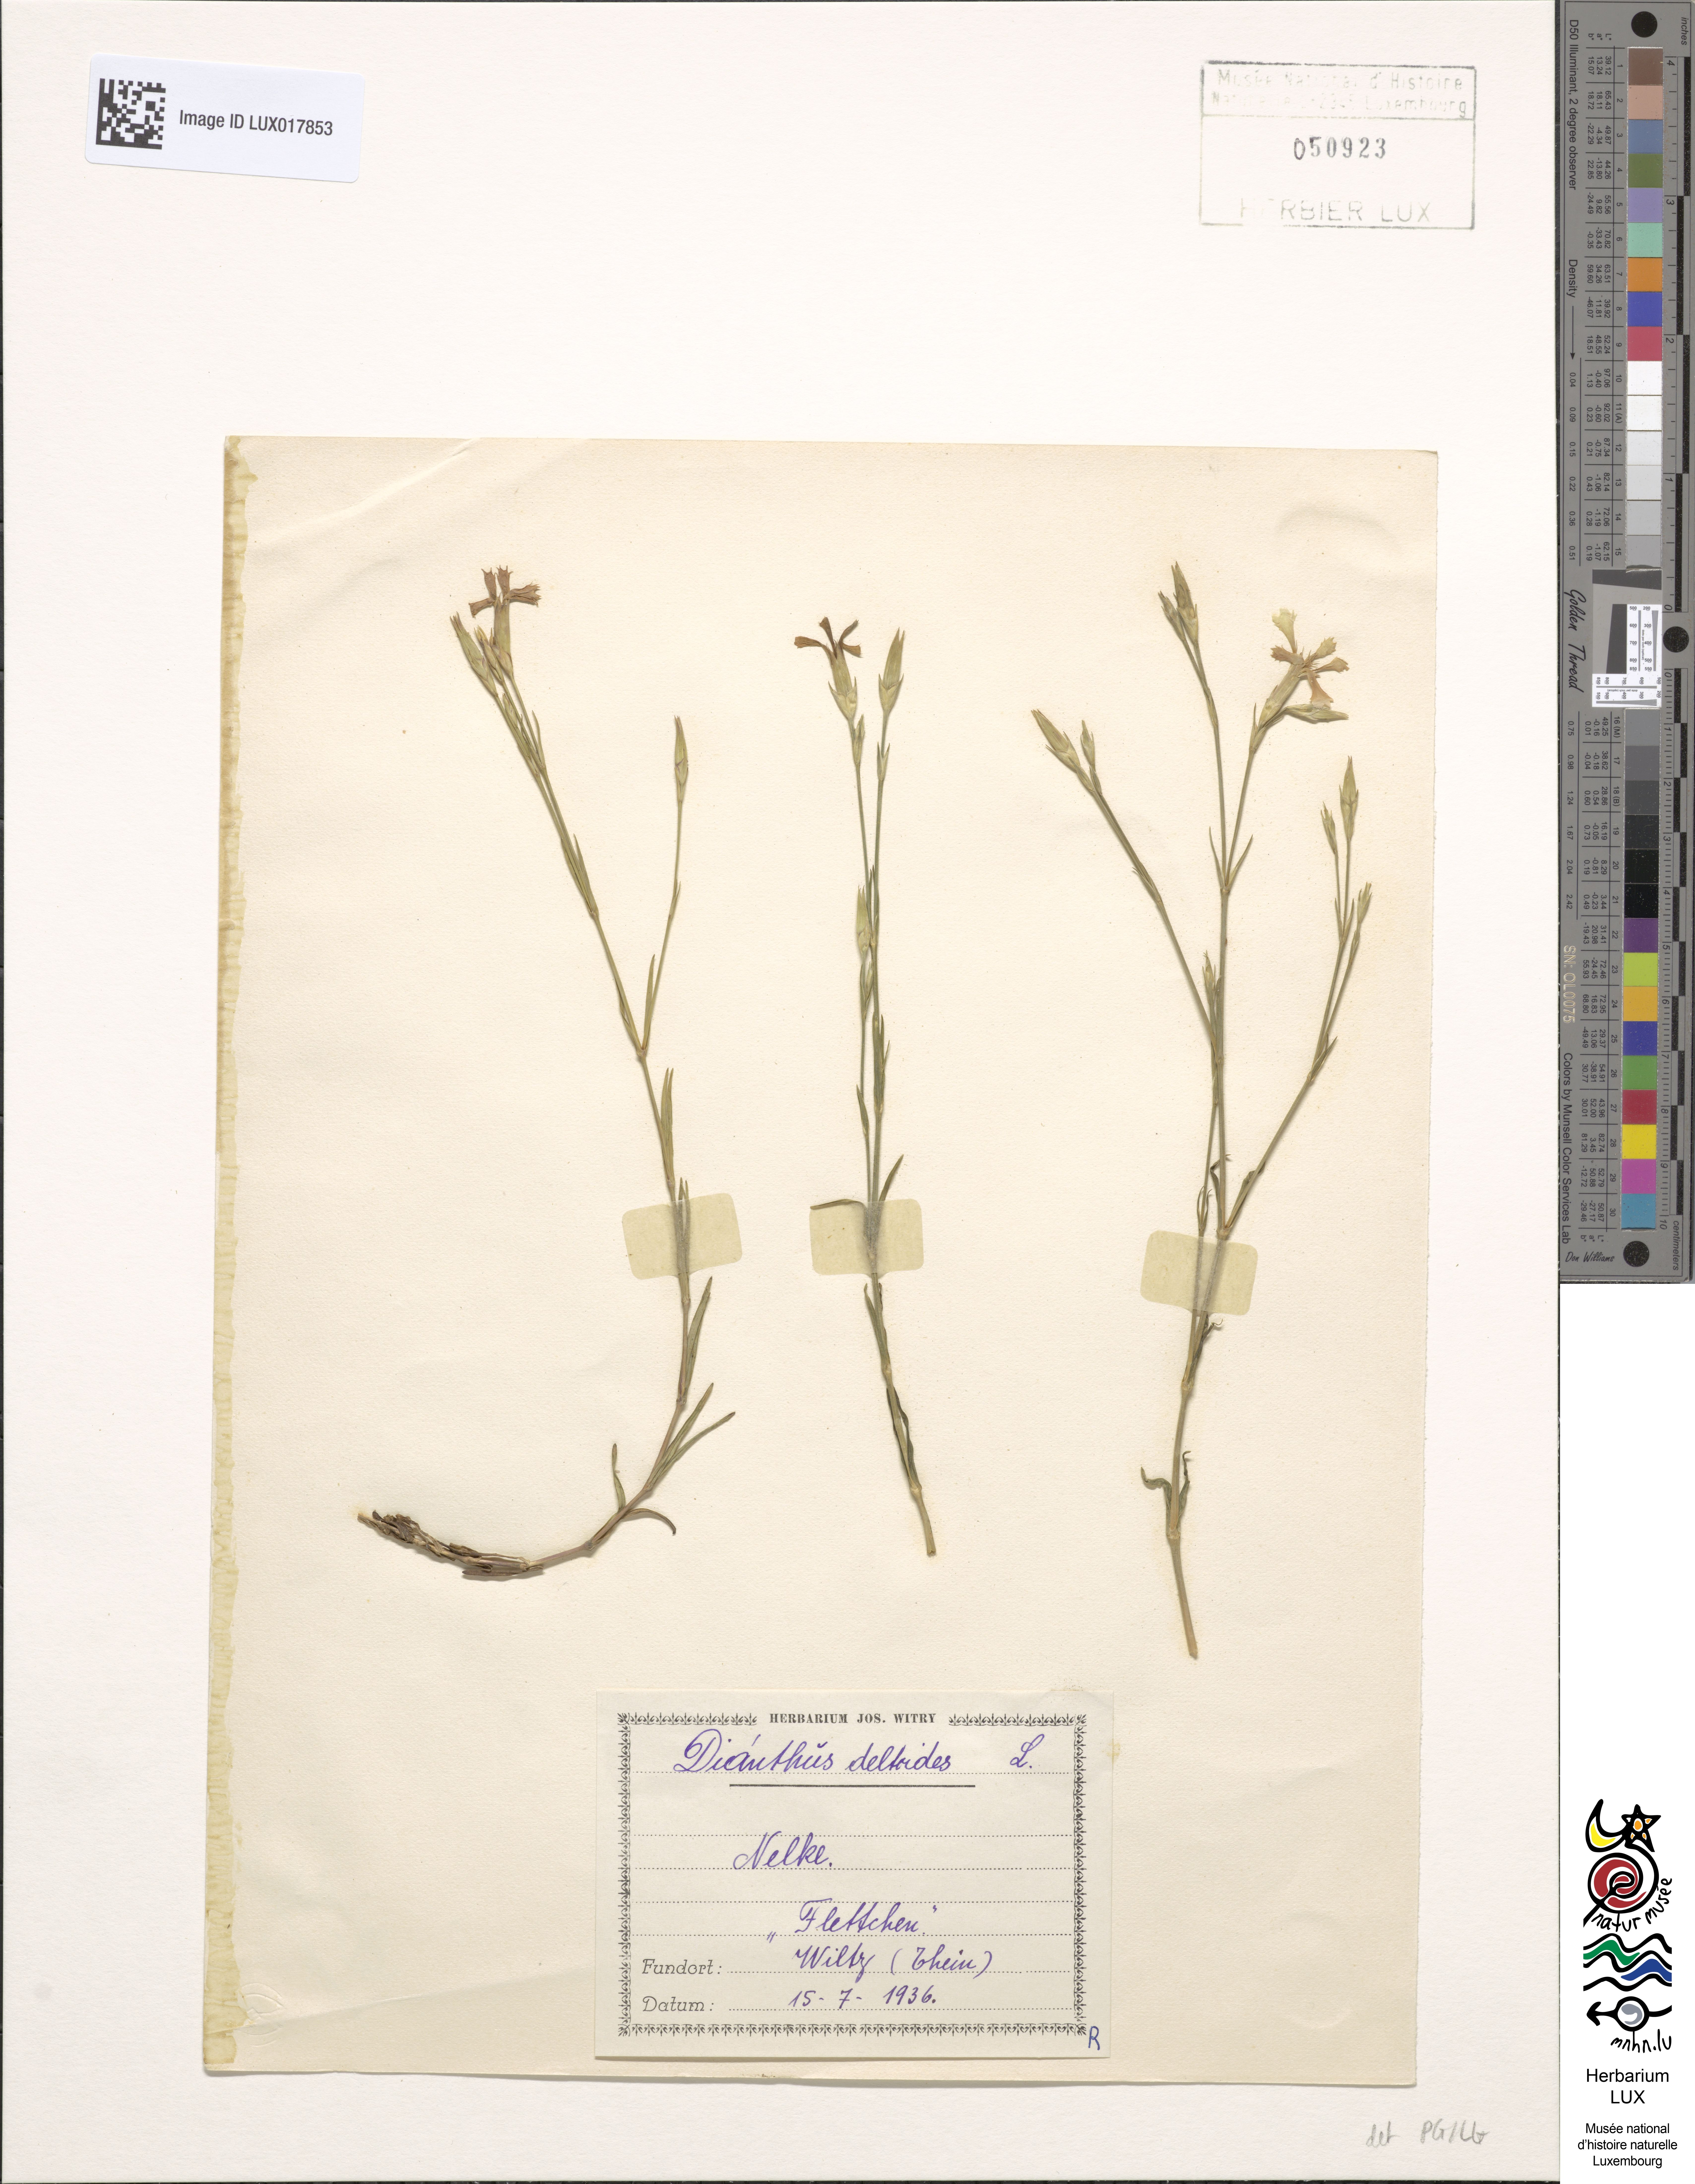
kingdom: Plantae
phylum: Tracheophyta
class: Magnoliopsida
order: Caryophyllales
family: Caryophyllaceae
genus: Dianthus
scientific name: Dianthus deltoides
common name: Maiden pink
